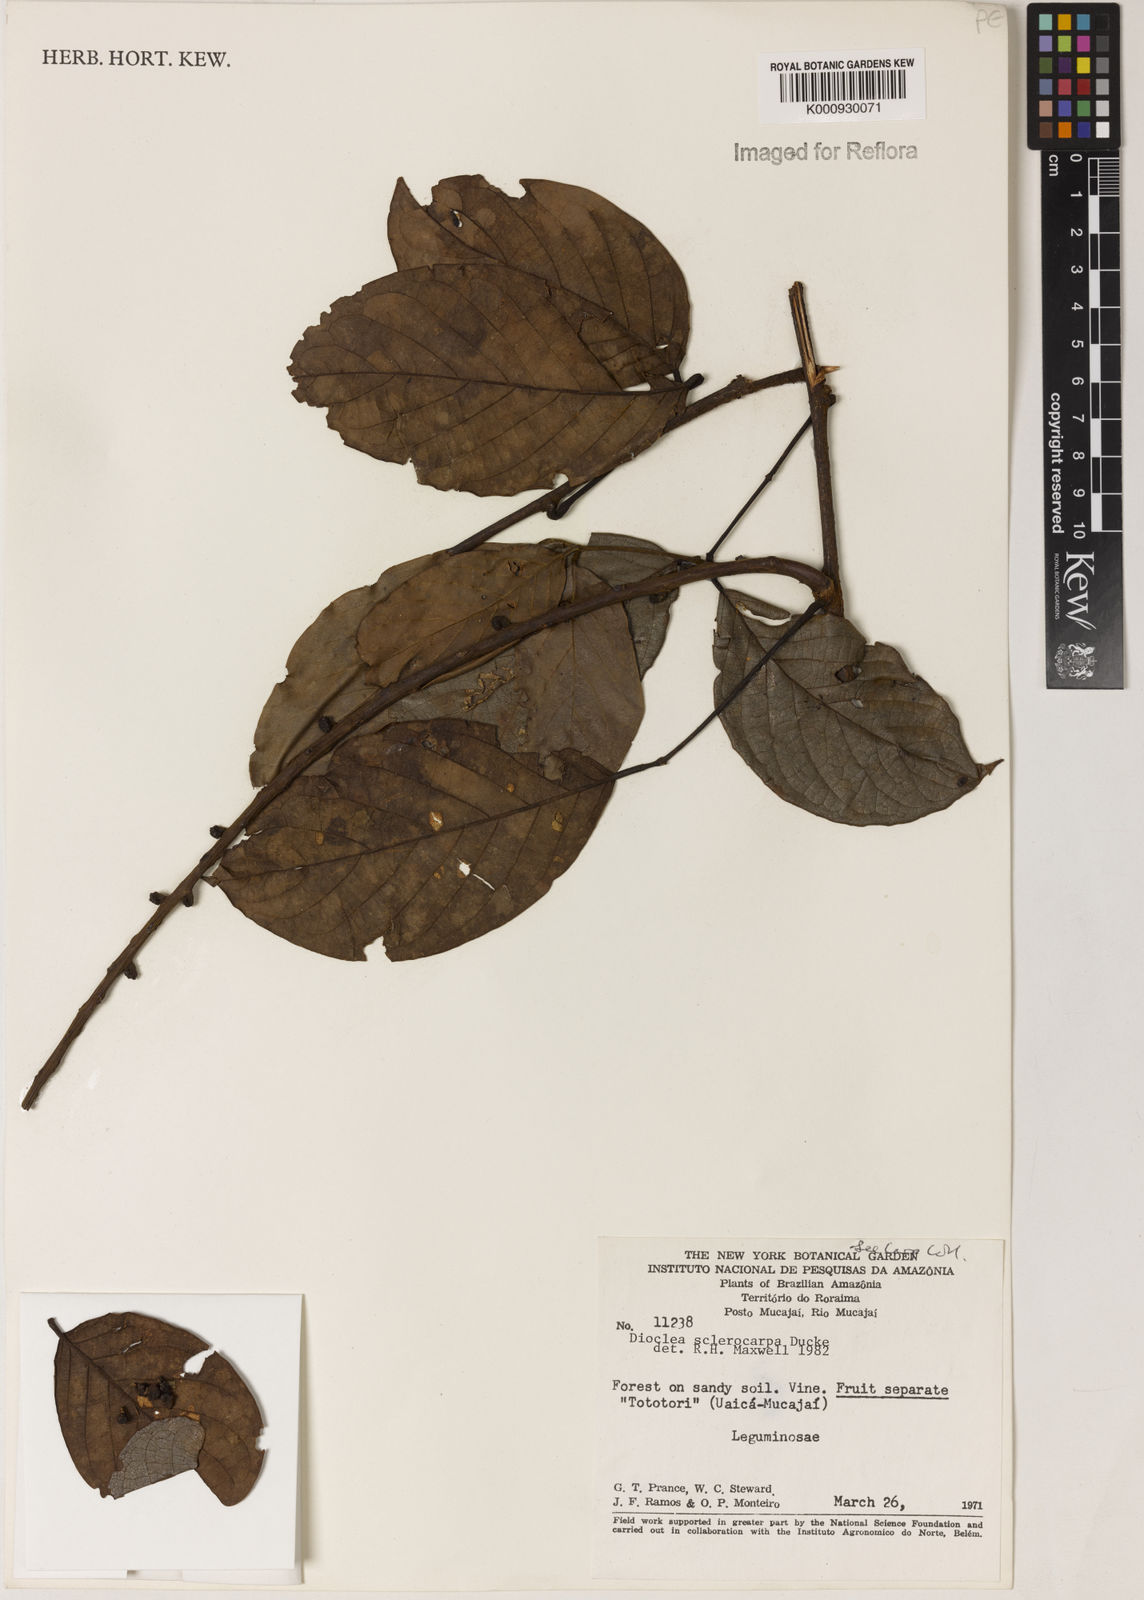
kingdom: Plantae
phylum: Tracheophyta
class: Magnoliopsida
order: Fabales
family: Fabaceae
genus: Macropsychanthus
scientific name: Macropsychanthus sclerocarpus
